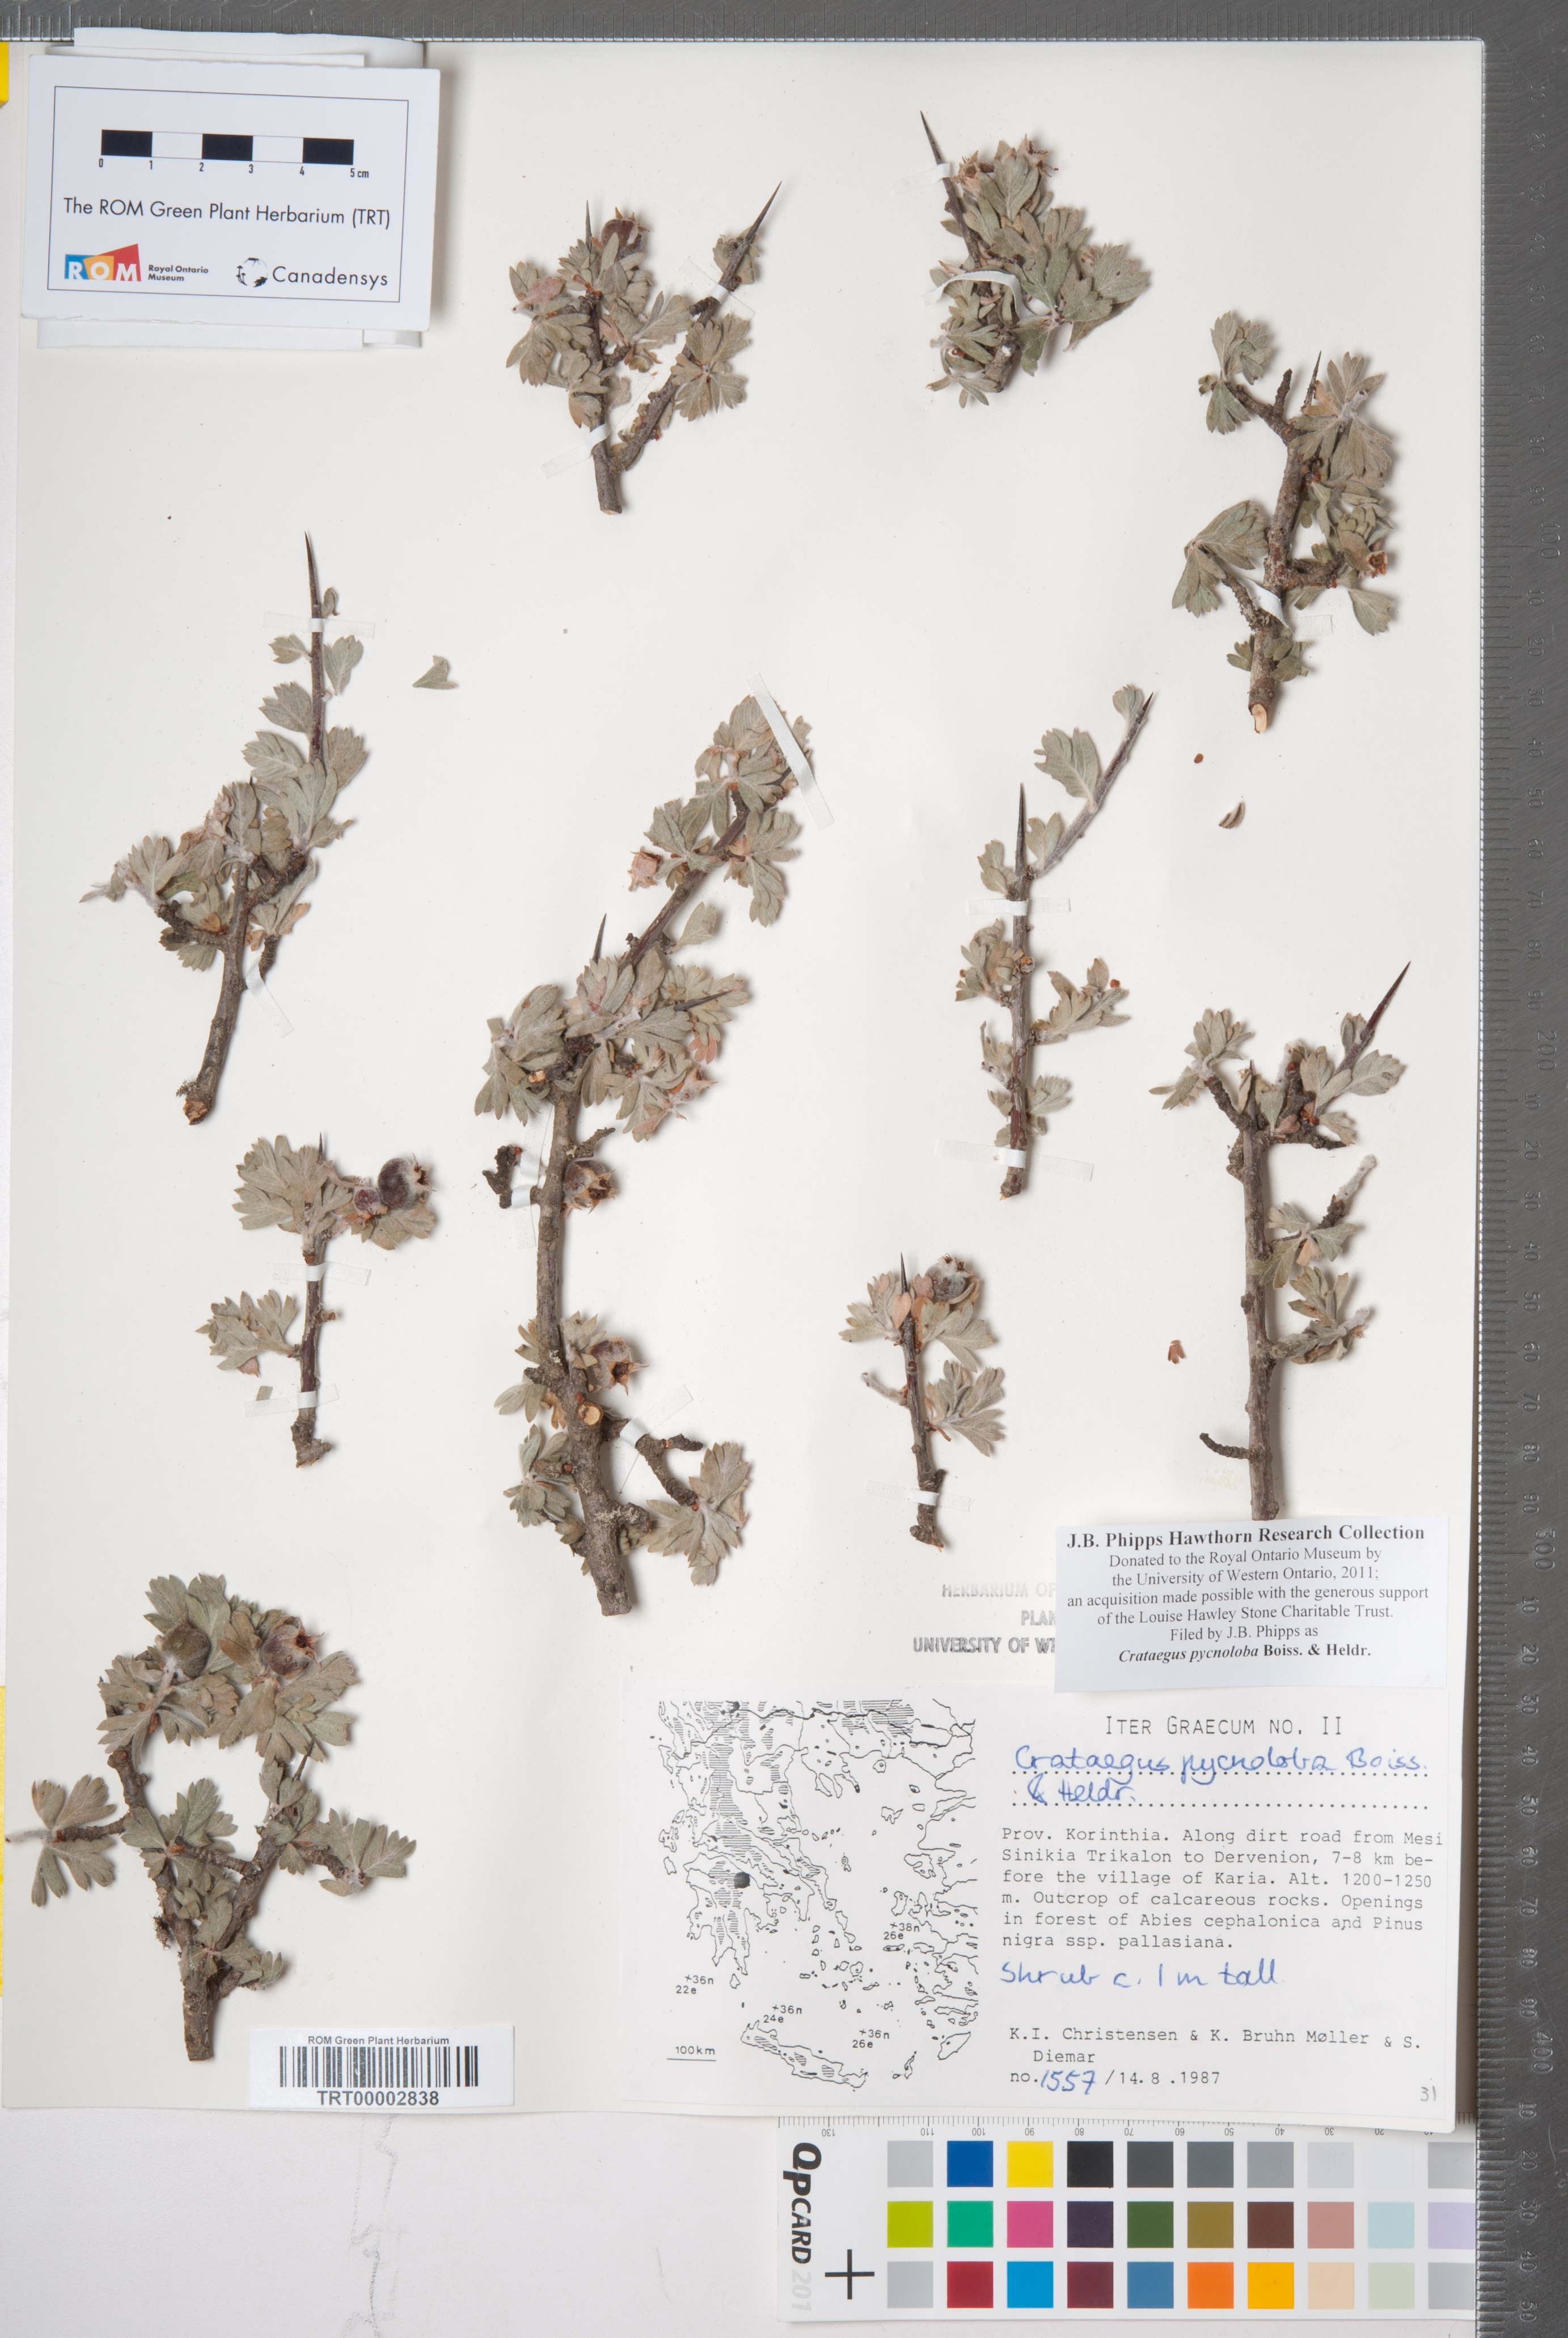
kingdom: Plantae
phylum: Tracheophyta
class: Magnoliopsida
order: Rosales
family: Rosaceae
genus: Crataegus
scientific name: Crataegus pycnoloba
